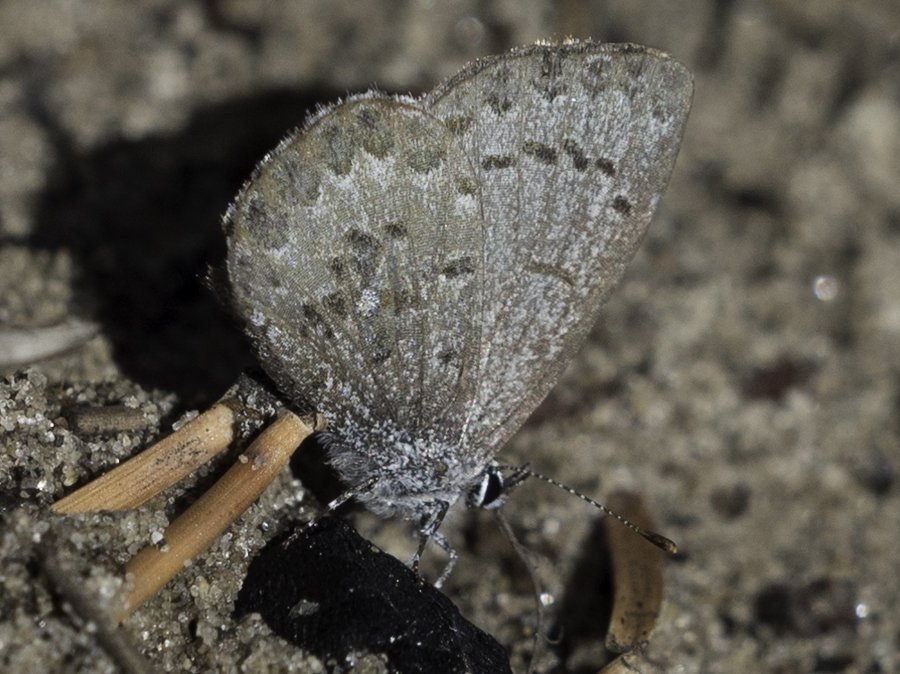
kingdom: Animalia
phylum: Arthropoda
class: Insecta
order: Lepidoptera
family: Lycaenidae
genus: Celastrina
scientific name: Celastrina lucia
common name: Northern Spring Azure
